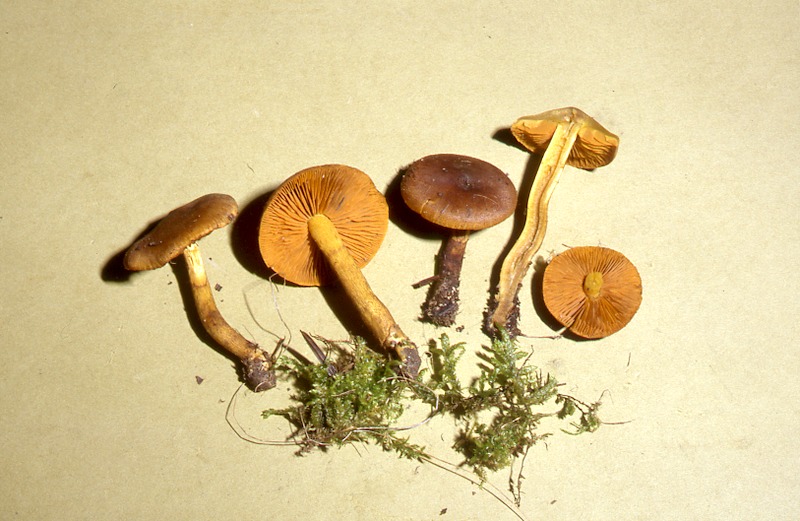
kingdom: Fungi
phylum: Basidiomycota
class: Agaricomycetes
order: Agaricales
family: Cortinariaceae
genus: Cortinarius
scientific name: Cortinarius croceus
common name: Saffron webcap
